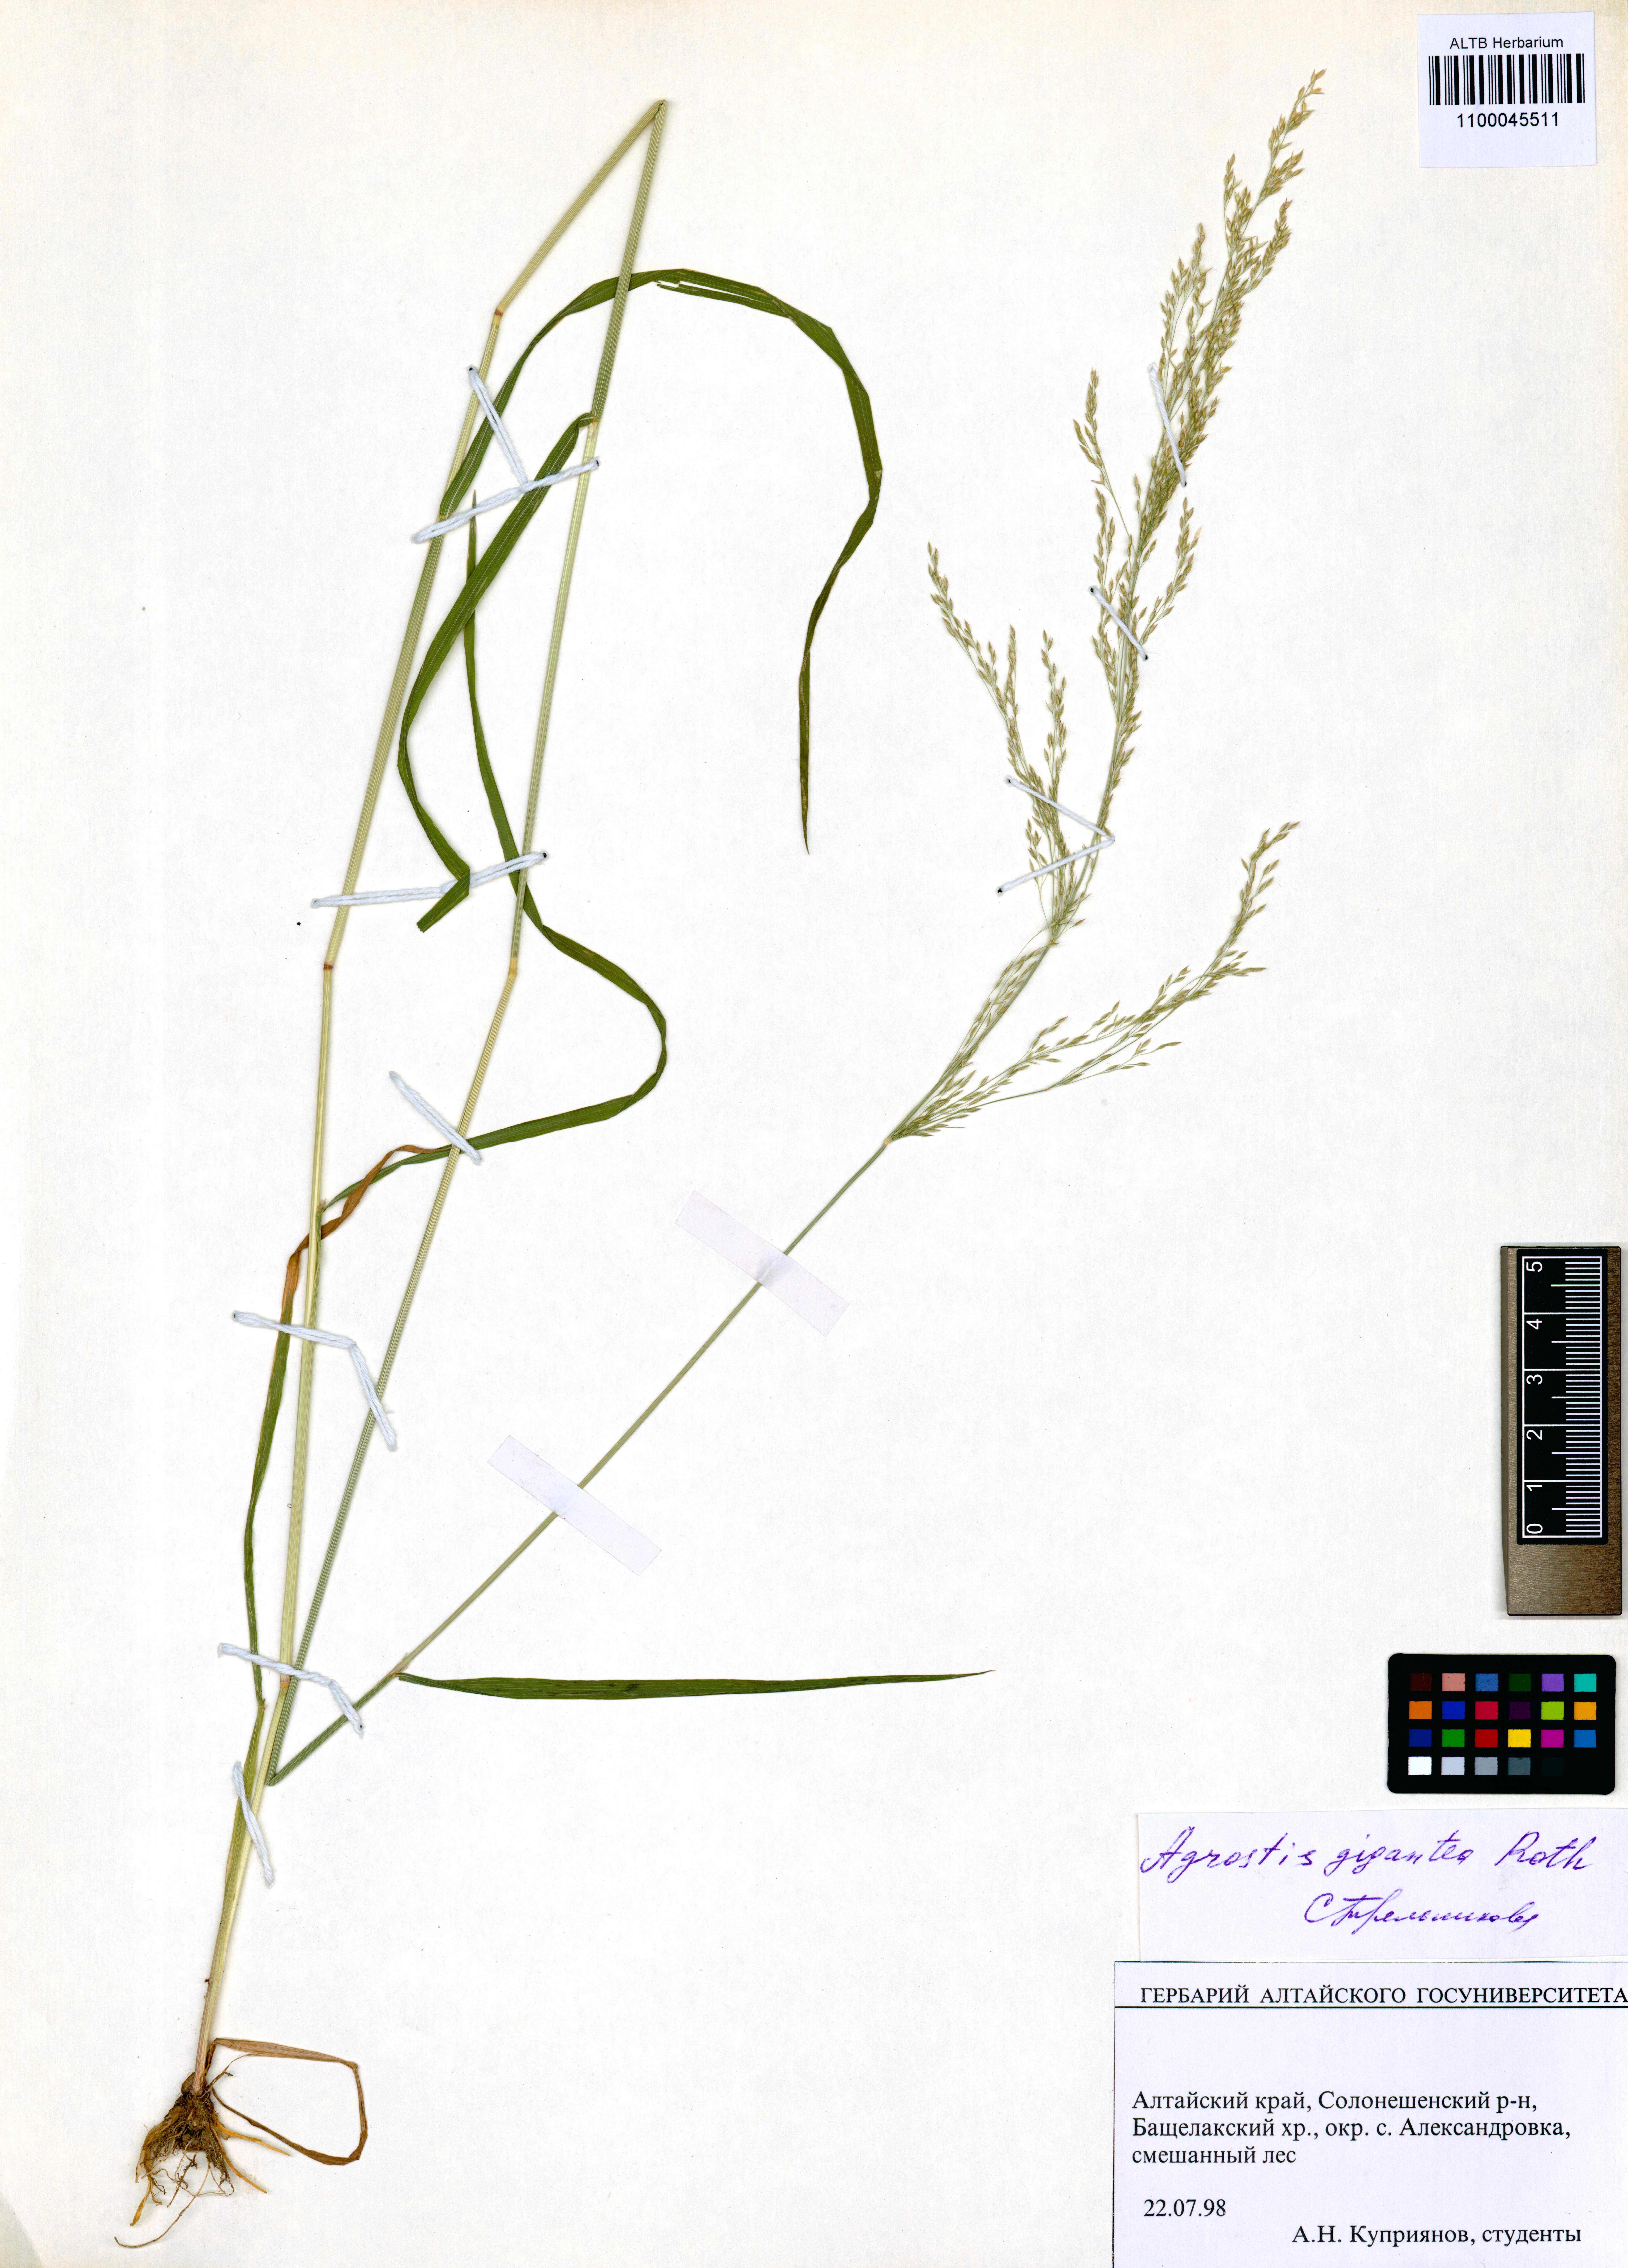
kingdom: Plantae
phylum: Tracheophyta
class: Liliopsida
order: Poales
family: Poaceae
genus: Agrostis
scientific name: Agrostis gigantea
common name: Black bent
